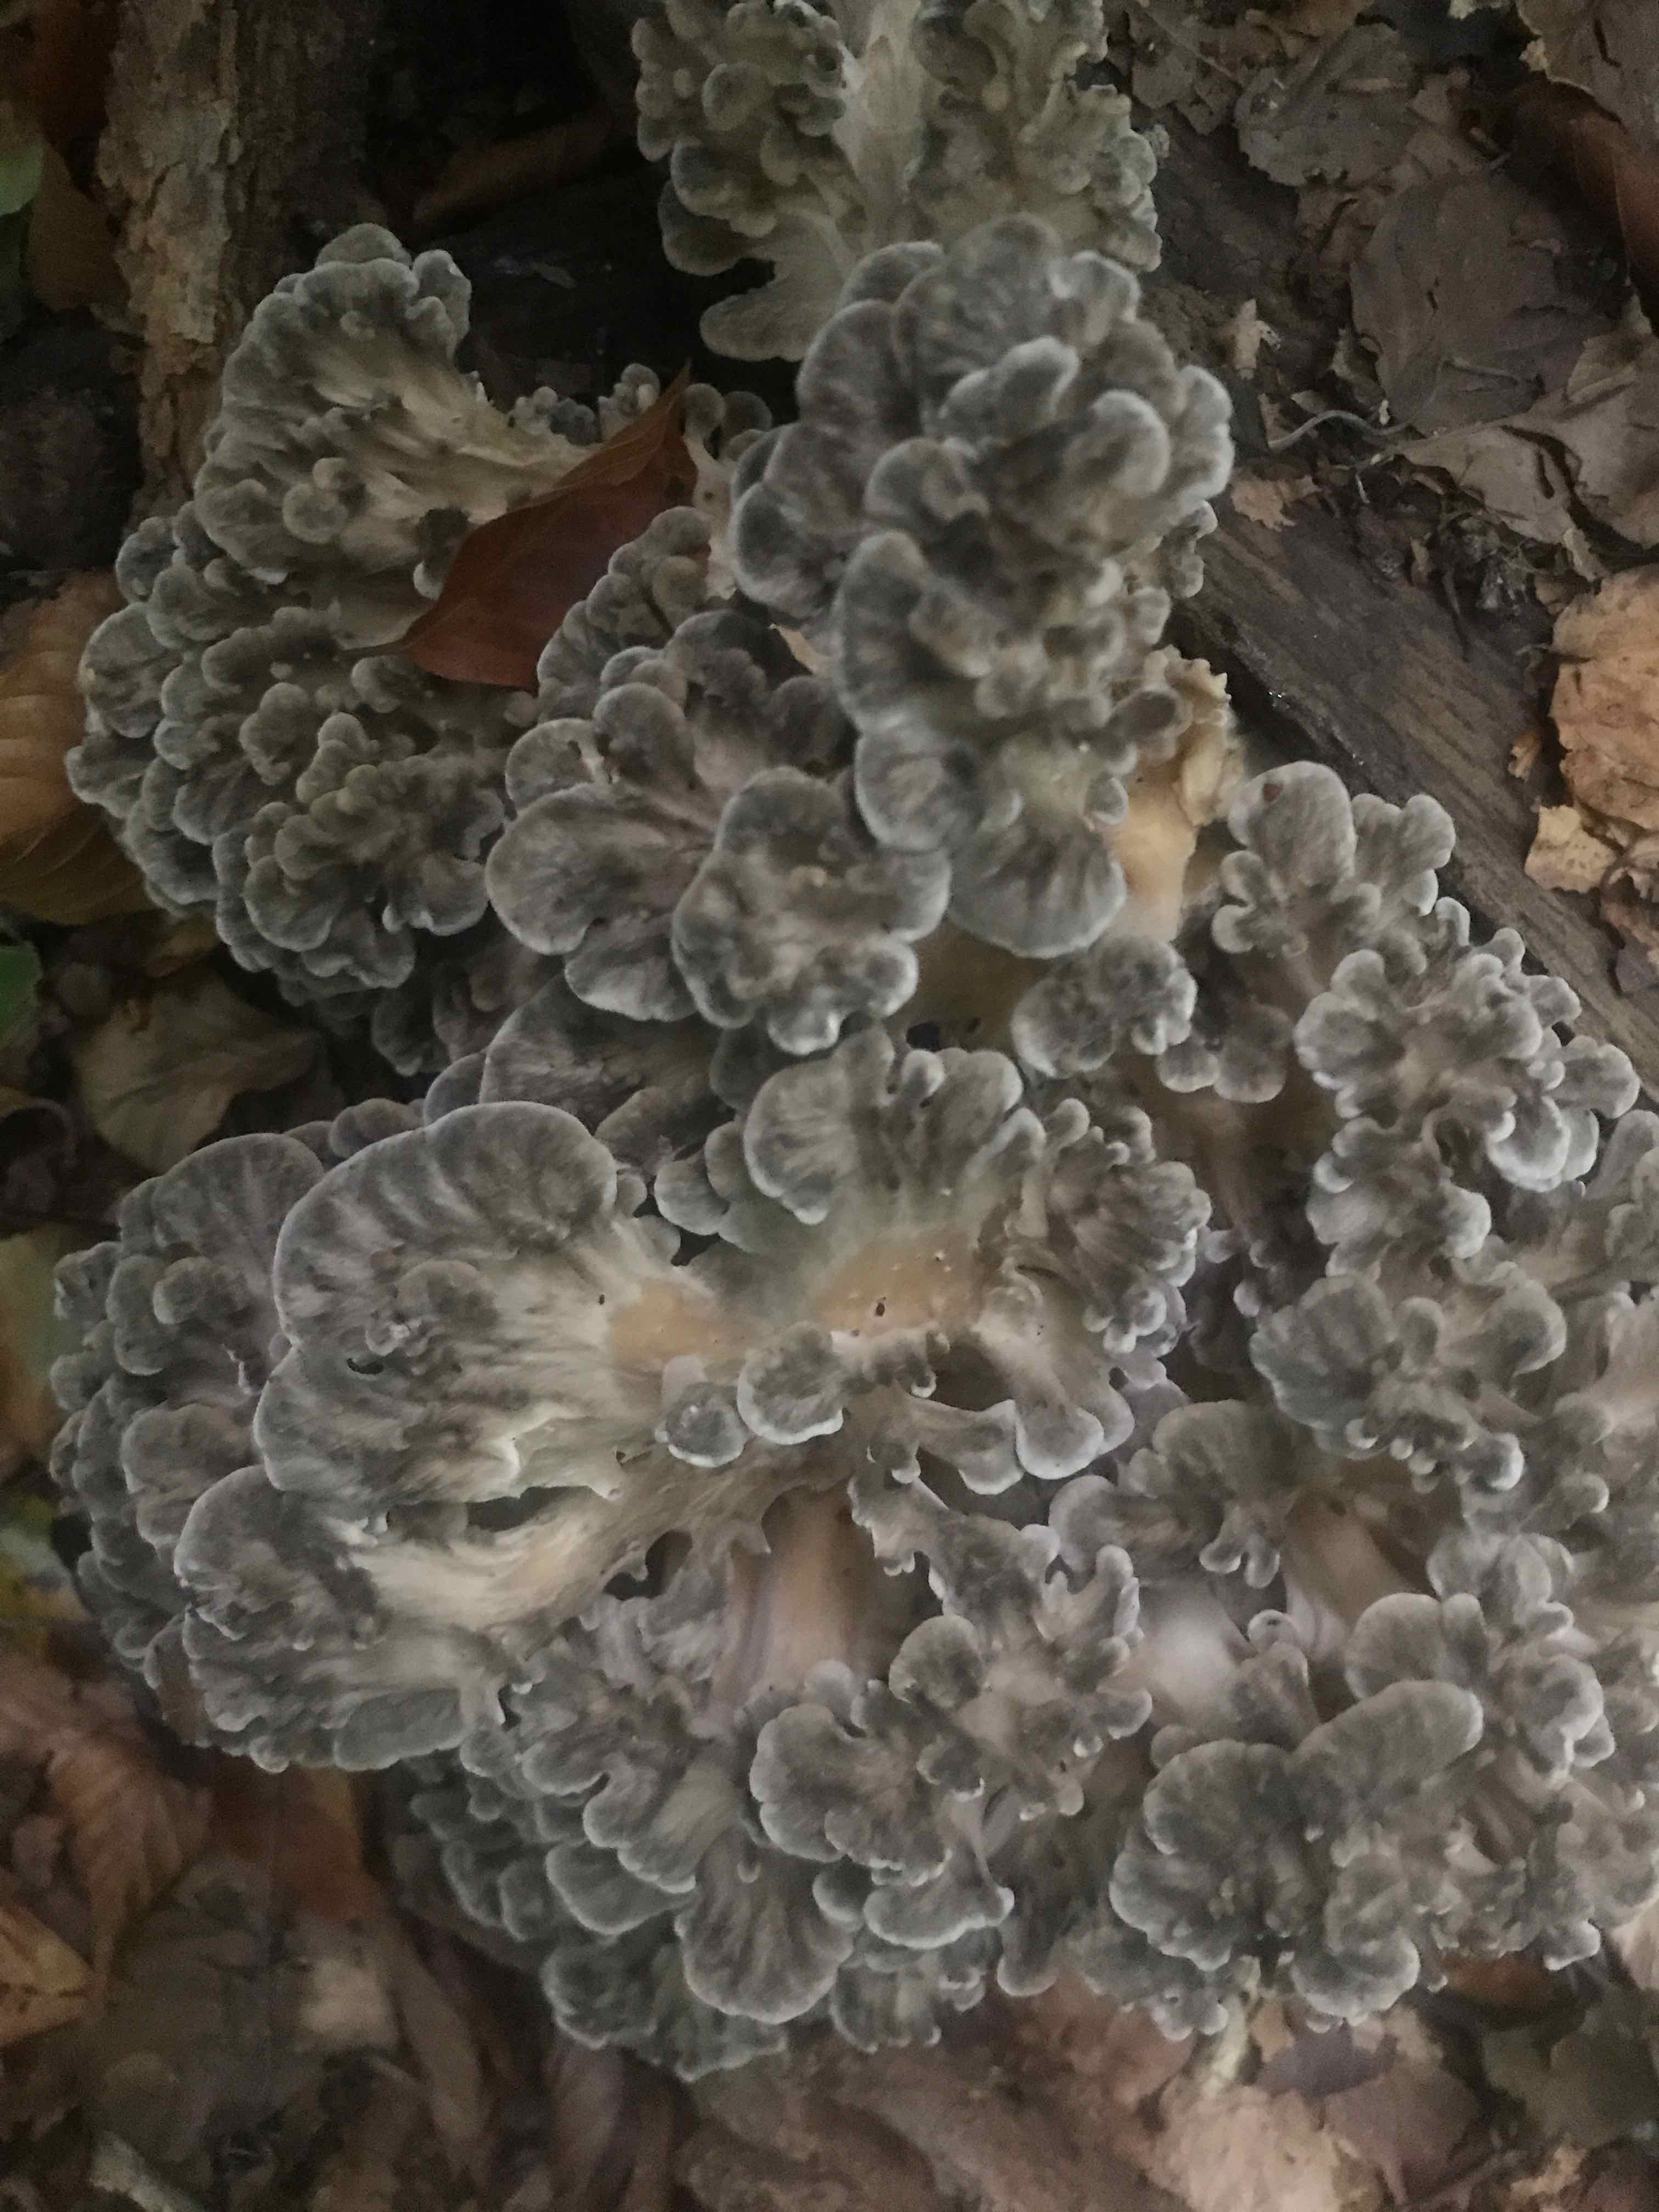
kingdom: Fungi
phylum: Basidiomycota
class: Agaricomycetes
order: Polyporales
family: Grifolaceae
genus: Grifola
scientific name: Grifola frondosa
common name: tueporesvamp
